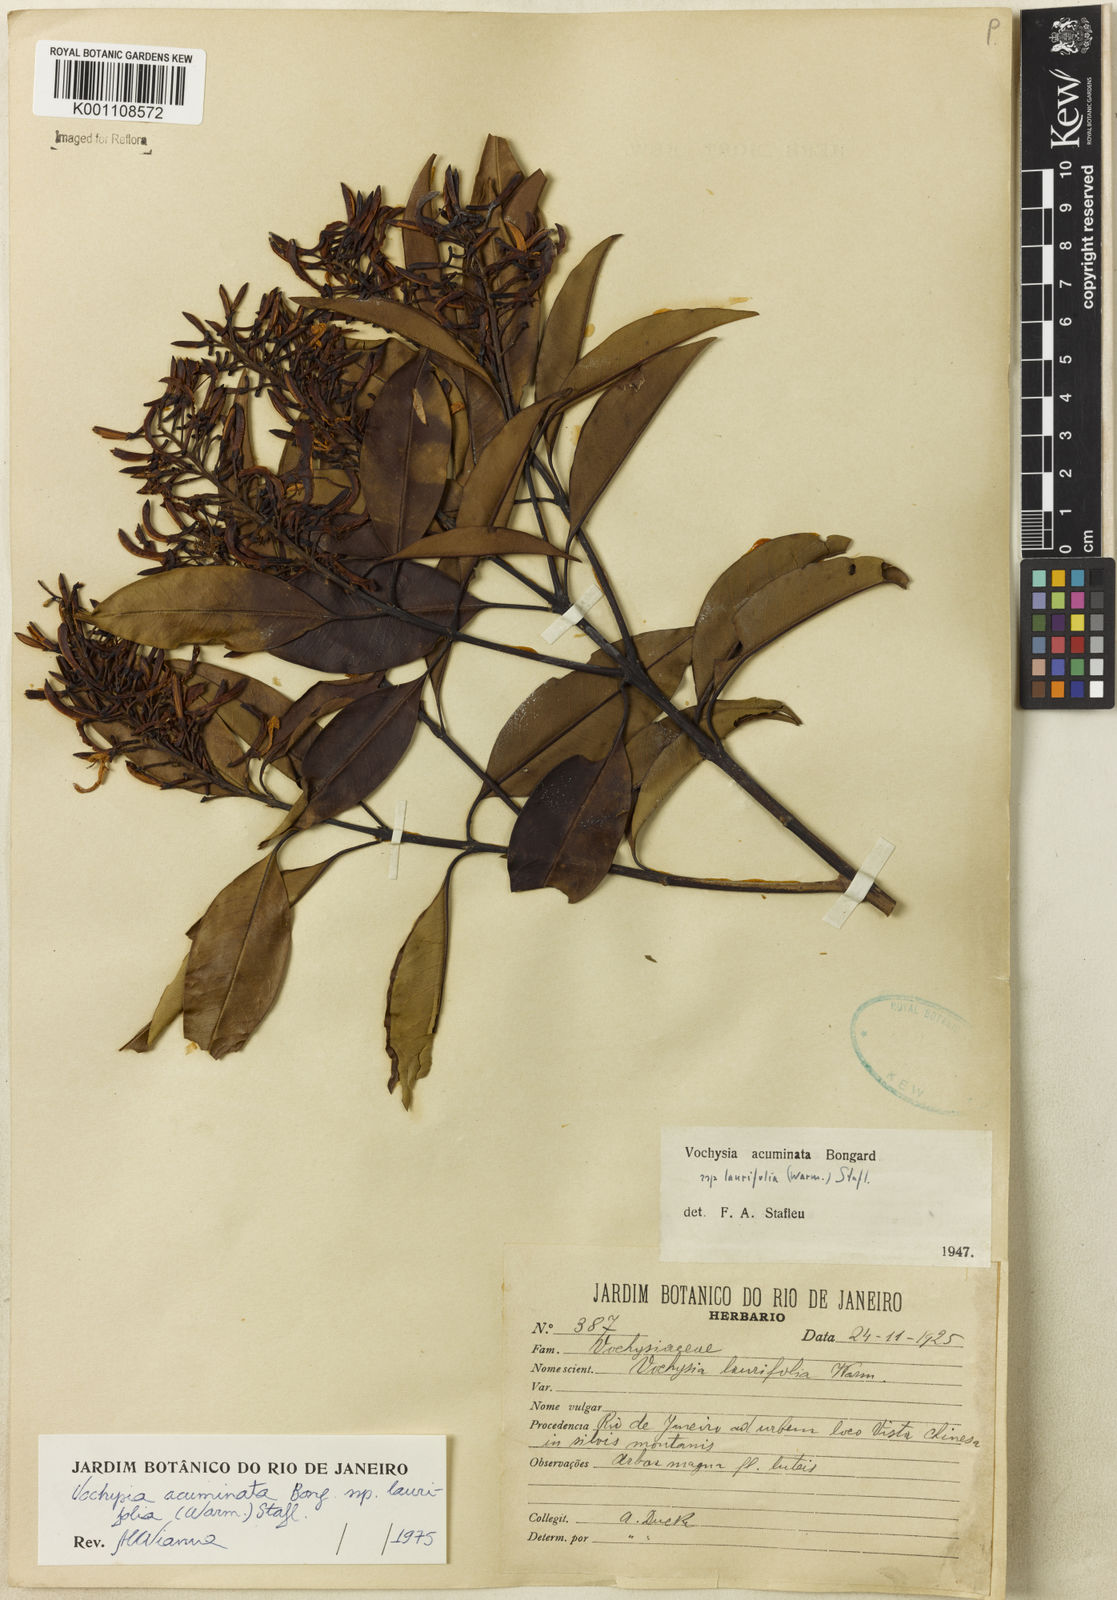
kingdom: Plantae
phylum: Tracheophyta
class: Magnoliopsida
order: Myrtales
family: Vochysiaceae
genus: Vochysia
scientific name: Vochysia laurifolia
